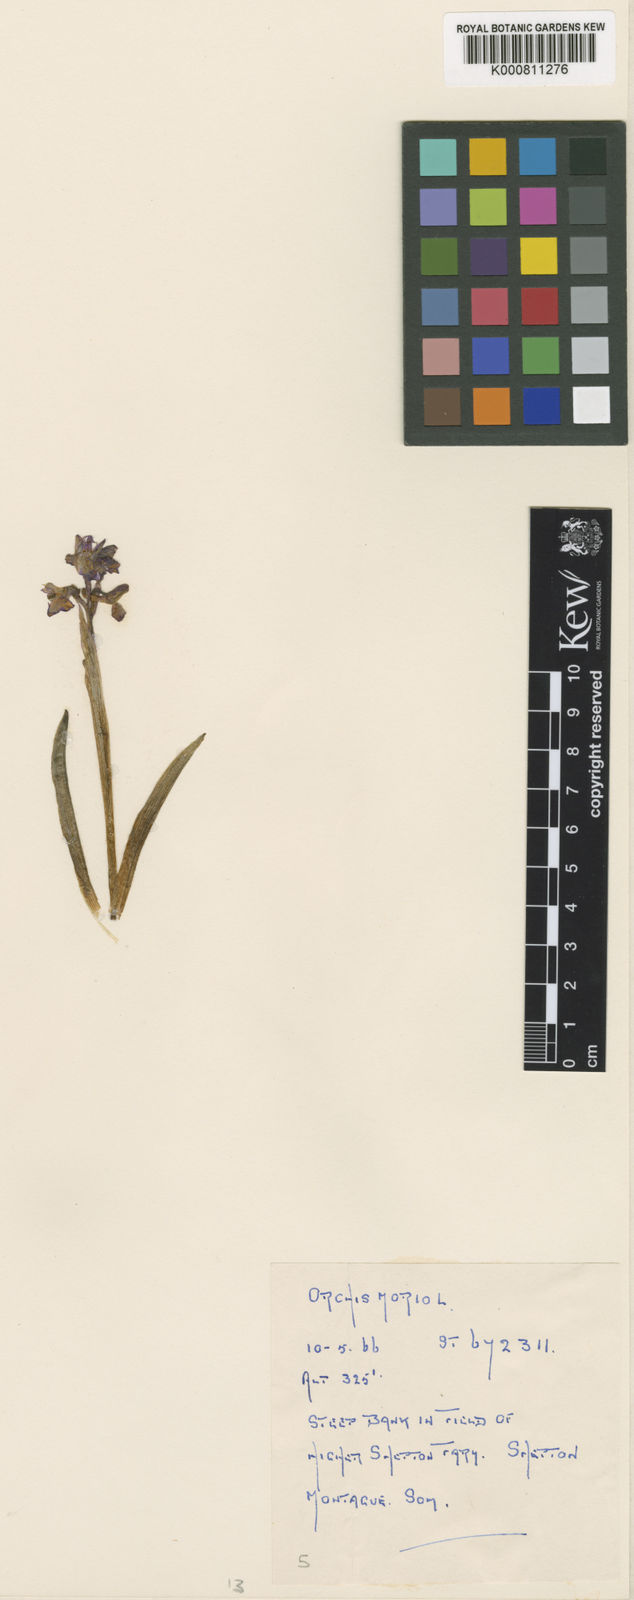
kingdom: Plantae
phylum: Tracheophyta
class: Liliopsida
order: Asparagales
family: Orchidaceae
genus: Anacamptis
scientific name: Anacamptis morio
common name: Green-winged orchid
